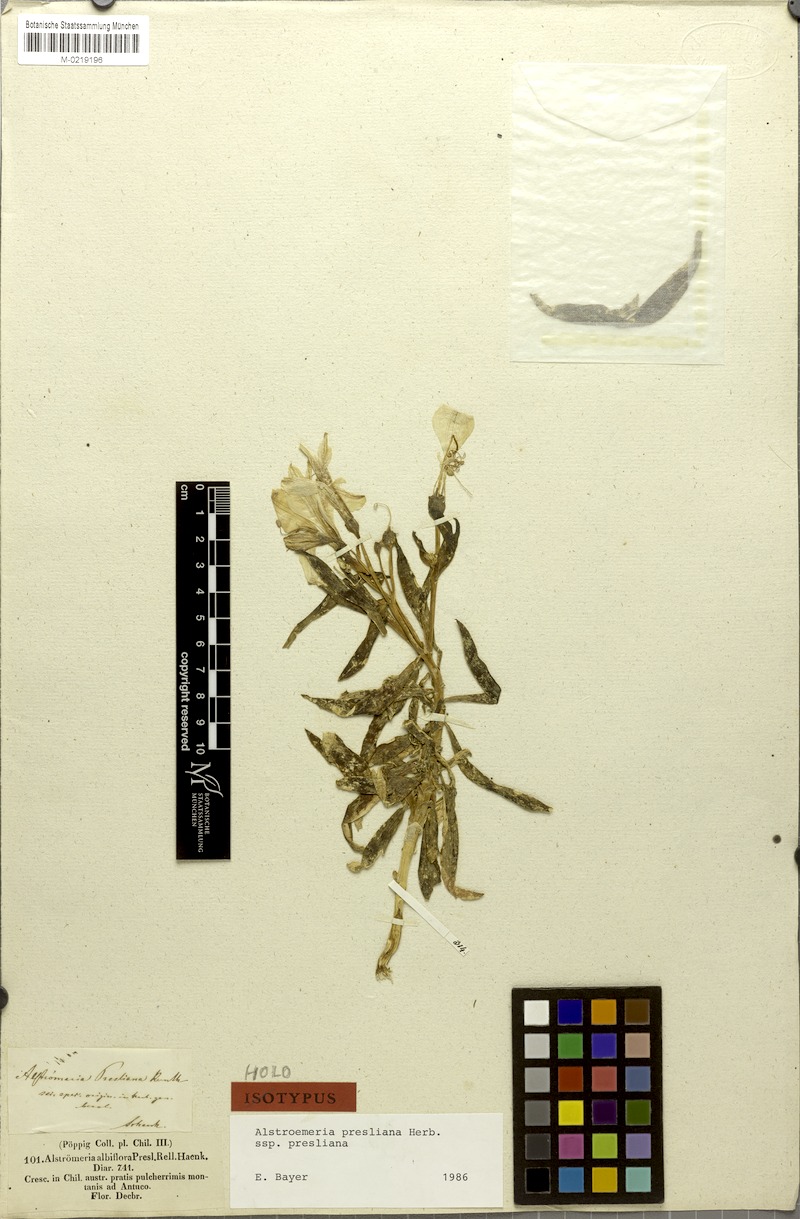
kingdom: Plantae
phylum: Tracheophyta
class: Liliopsida
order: Liliales
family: Alstroemeriaceae
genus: Alstroemeria
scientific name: Alstroemeria presliana
